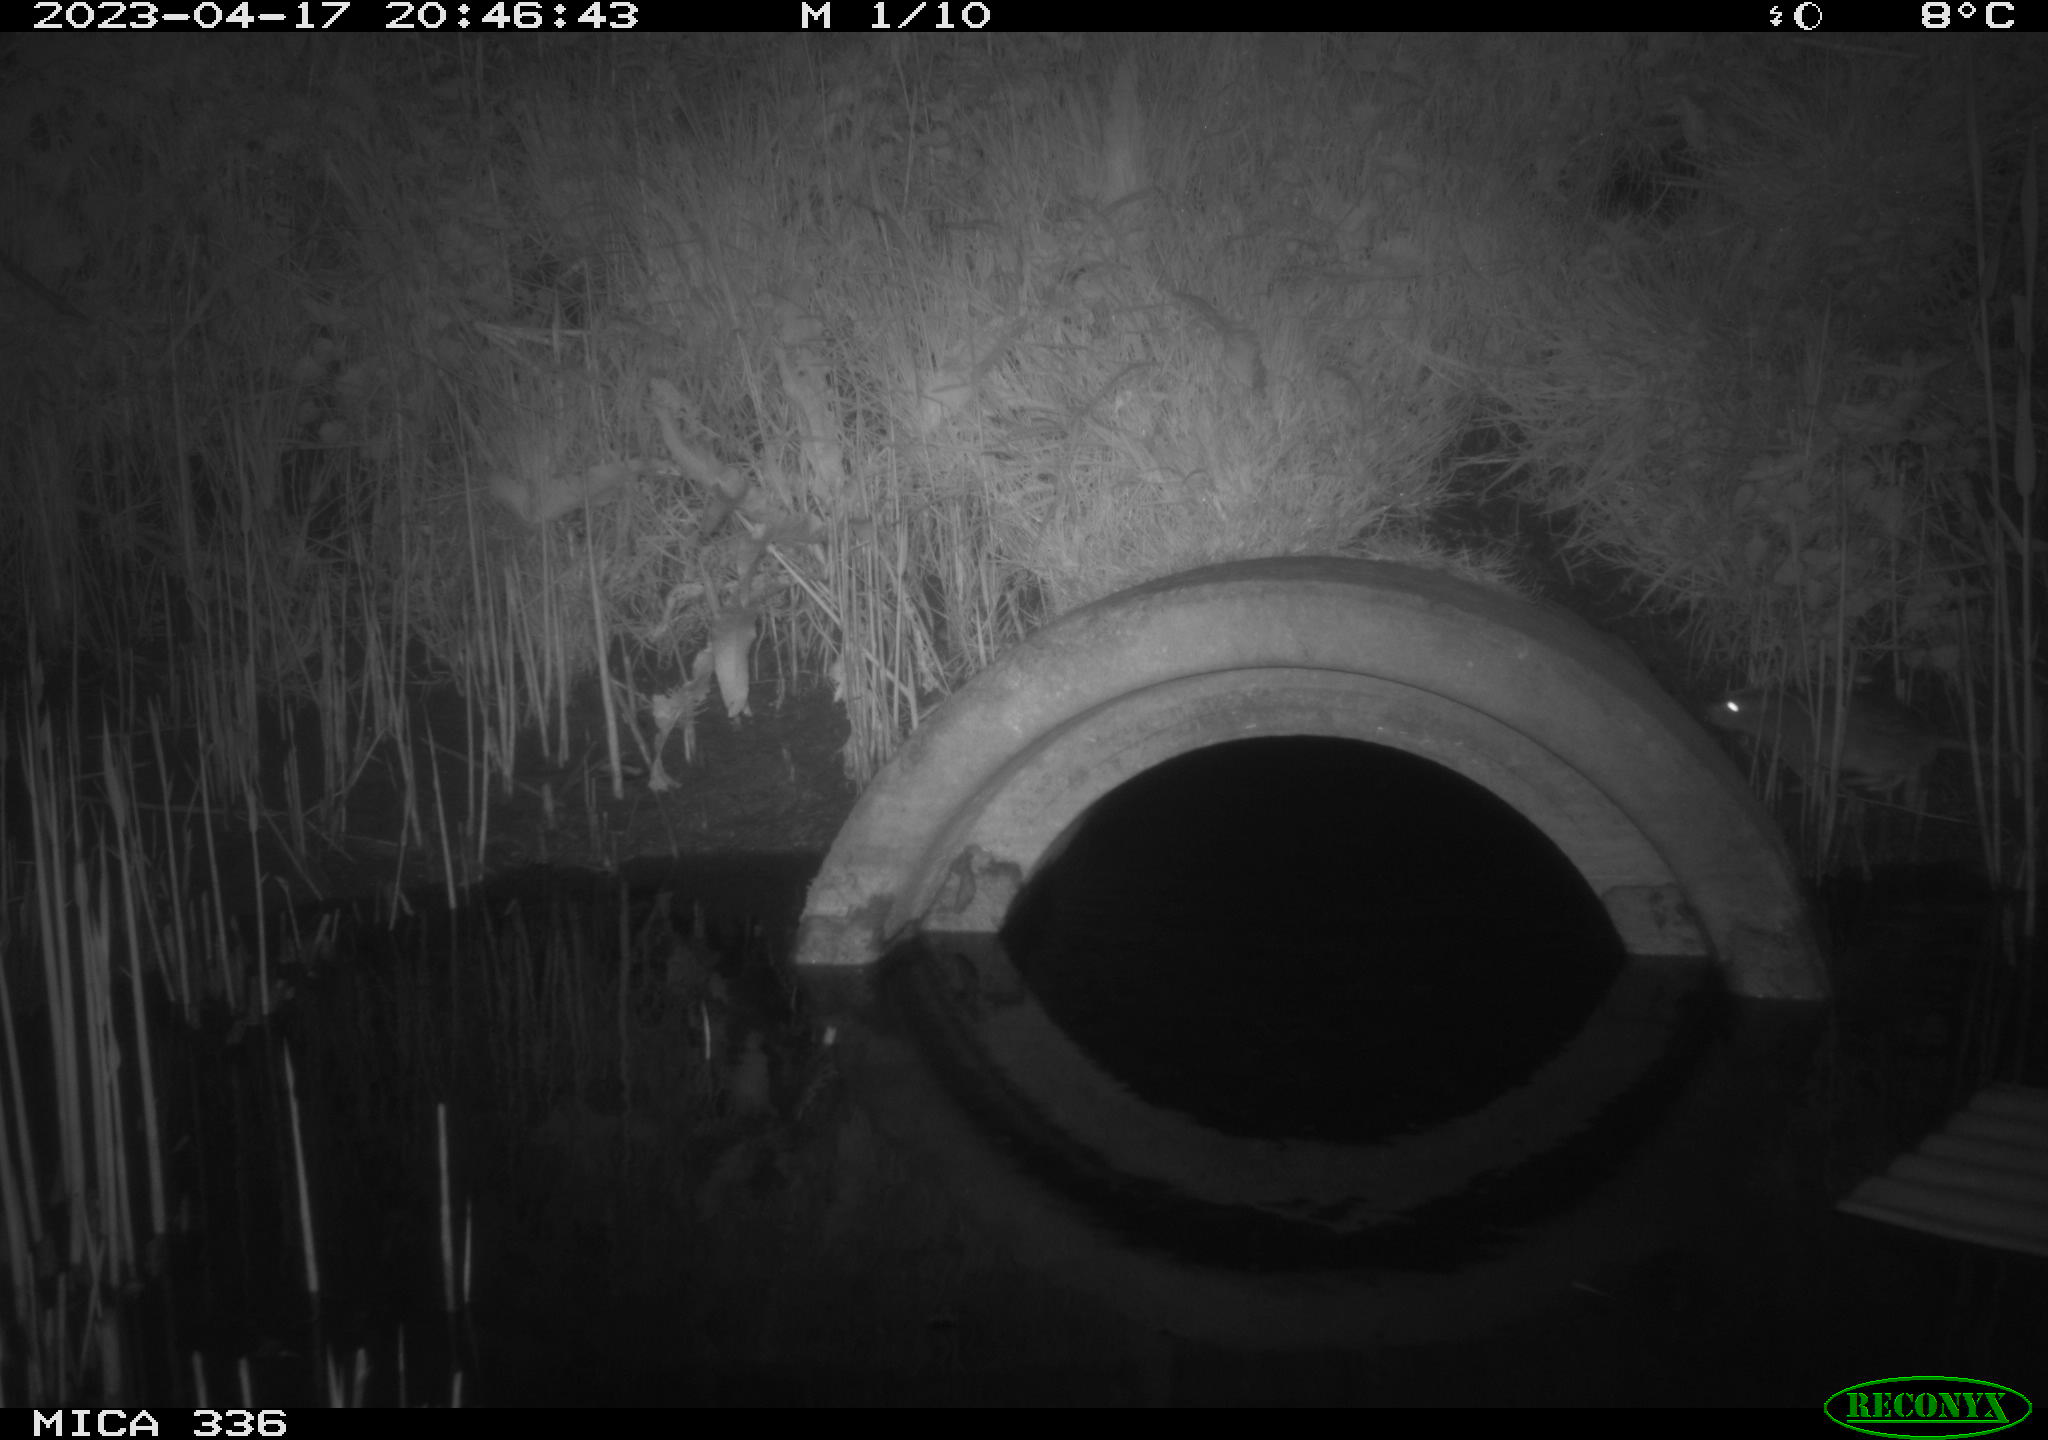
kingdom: Animalia
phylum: Chordata
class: Mammalia
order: Rodentia
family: Muridae
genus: Rattus
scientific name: Rattus norvegicus
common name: Brown rat
